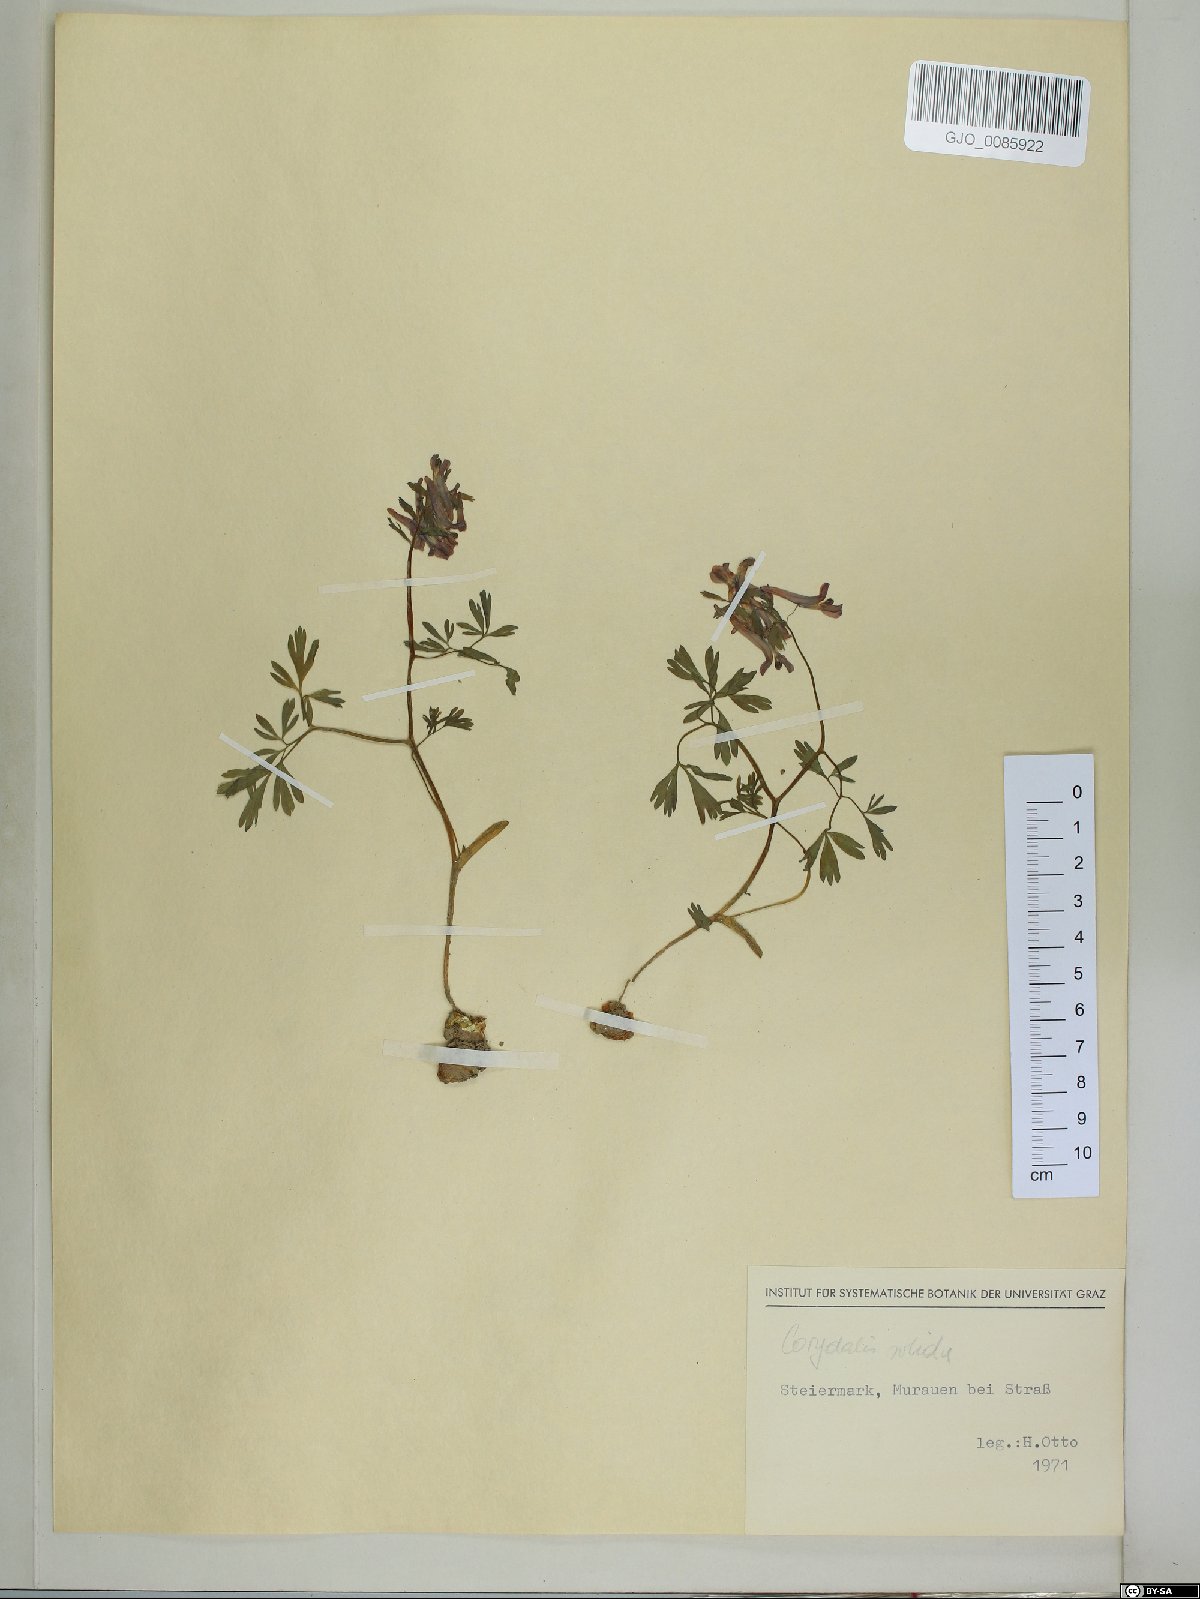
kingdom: Plantae
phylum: Tracheophyta
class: Magnoliopsida
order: Ranunculales
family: Papaveraceae
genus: Corydalis
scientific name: Corydalis solida
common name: Bird-in-a-bush
